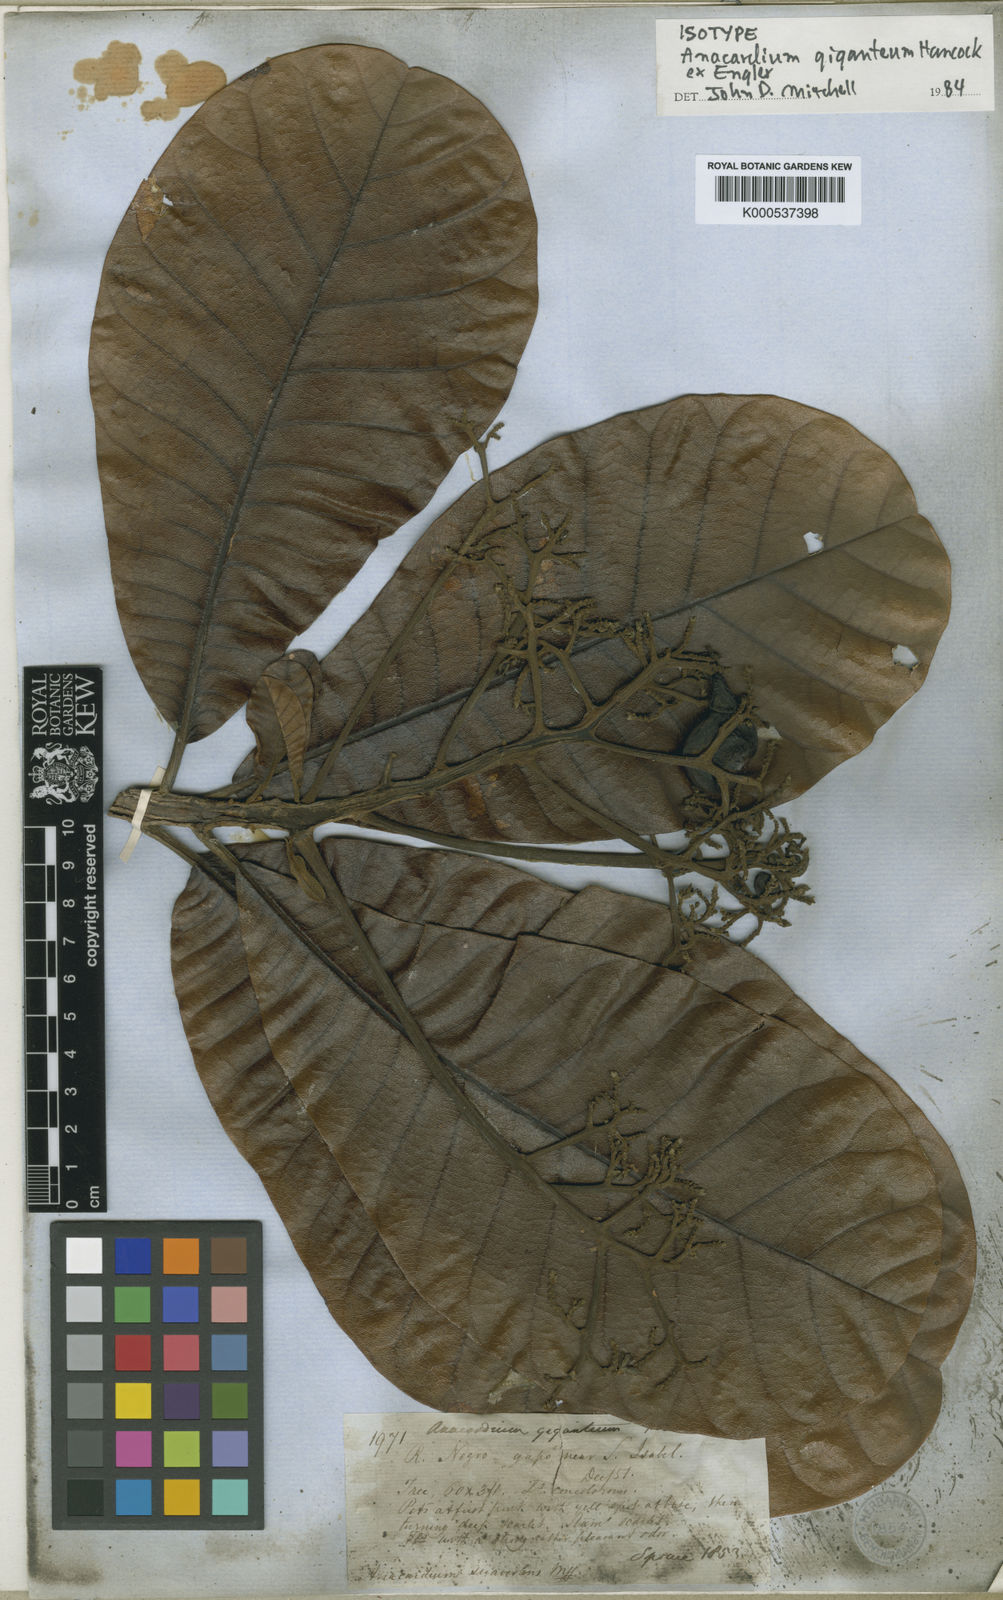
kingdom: Plantae
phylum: Tracheophyta
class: Magnoliopsida
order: Sapindales
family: Anacardiaceae
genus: Anacardium
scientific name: Anacardium giganteum
